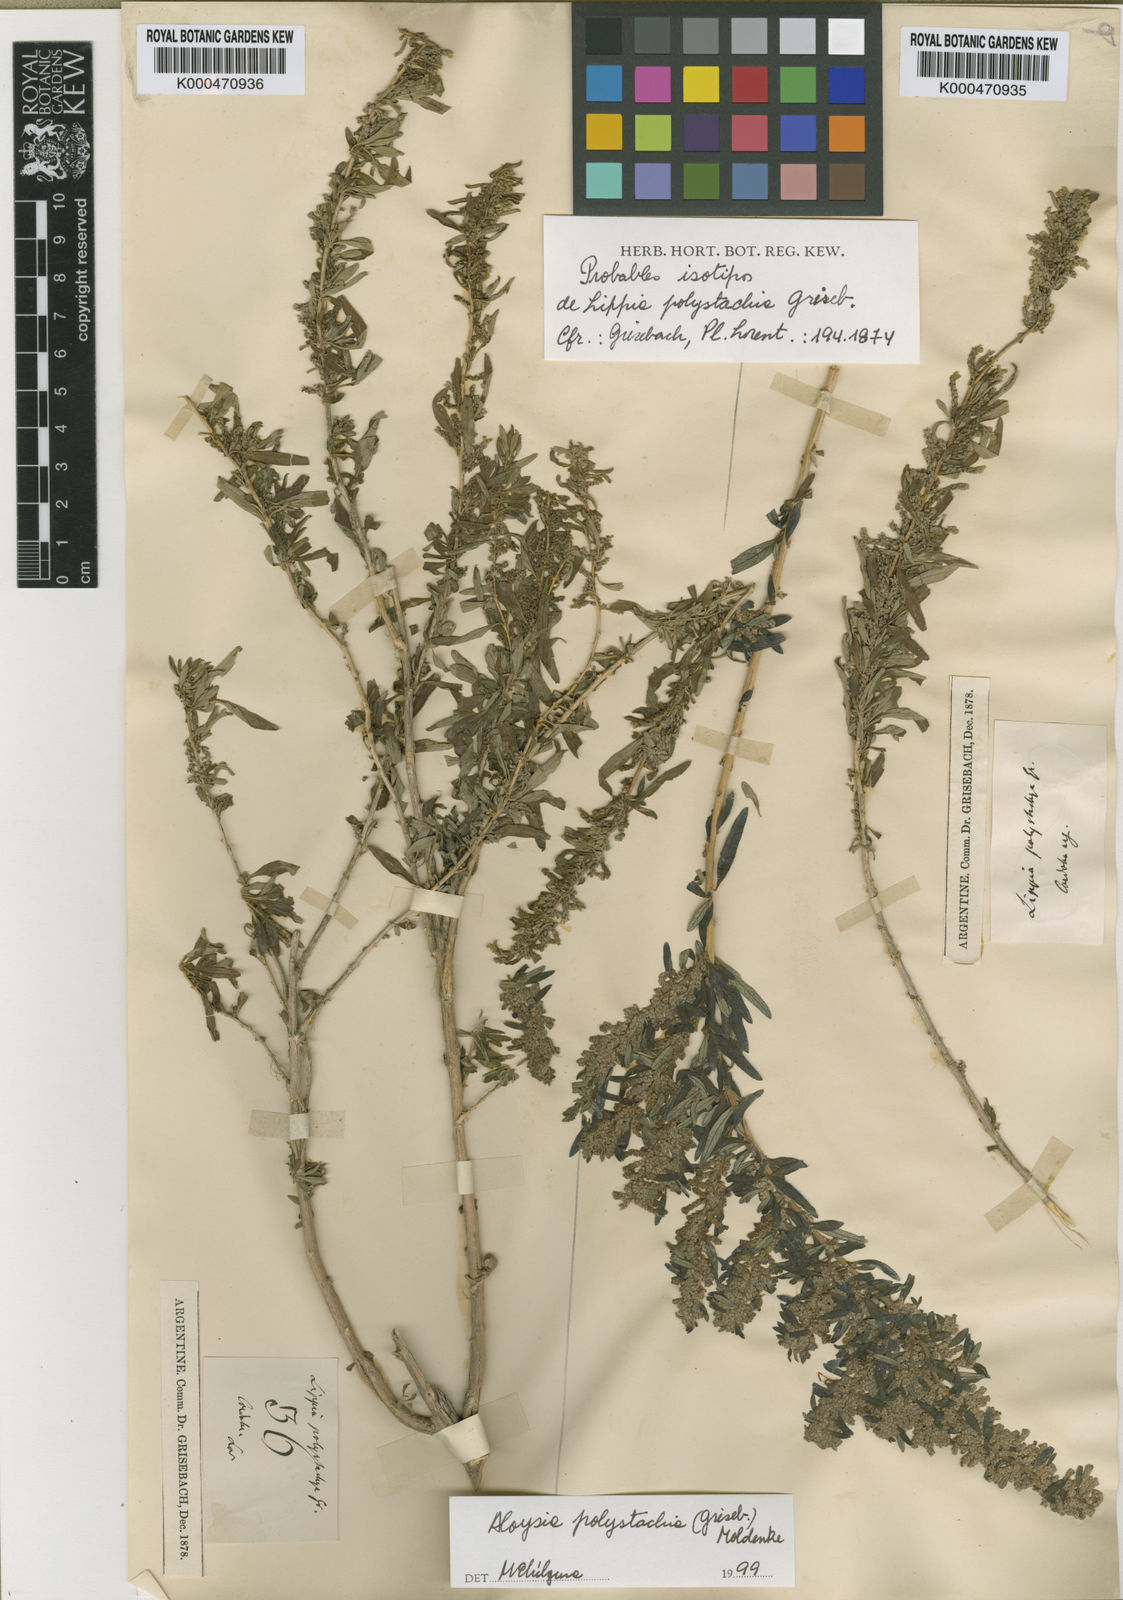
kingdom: Plantae
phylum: Tracheophyta
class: Magnoliopsida
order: Lamiales
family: Verbenaceae
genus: Aloysia
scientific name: Aloysia polystachya
